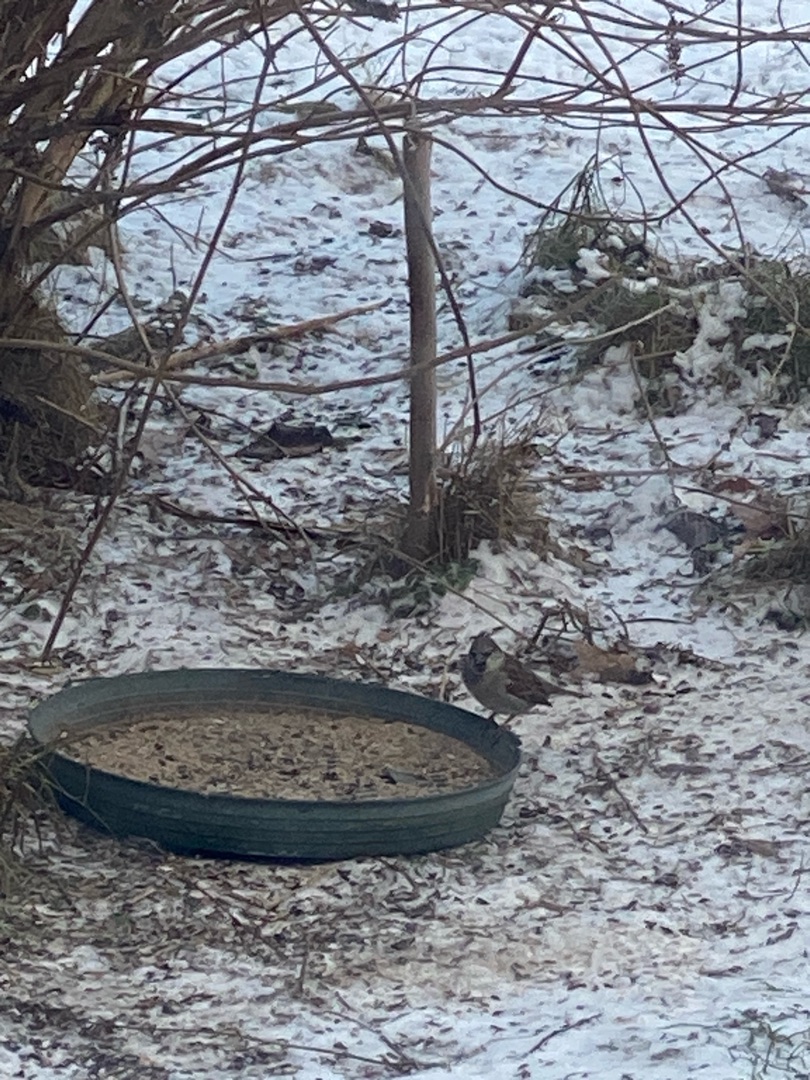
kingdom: Animalia
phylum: Chordata
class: Aves
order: Passeriformes
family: Passeridae
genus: Passer
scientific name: Passer domesticus
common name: Gråspurv
